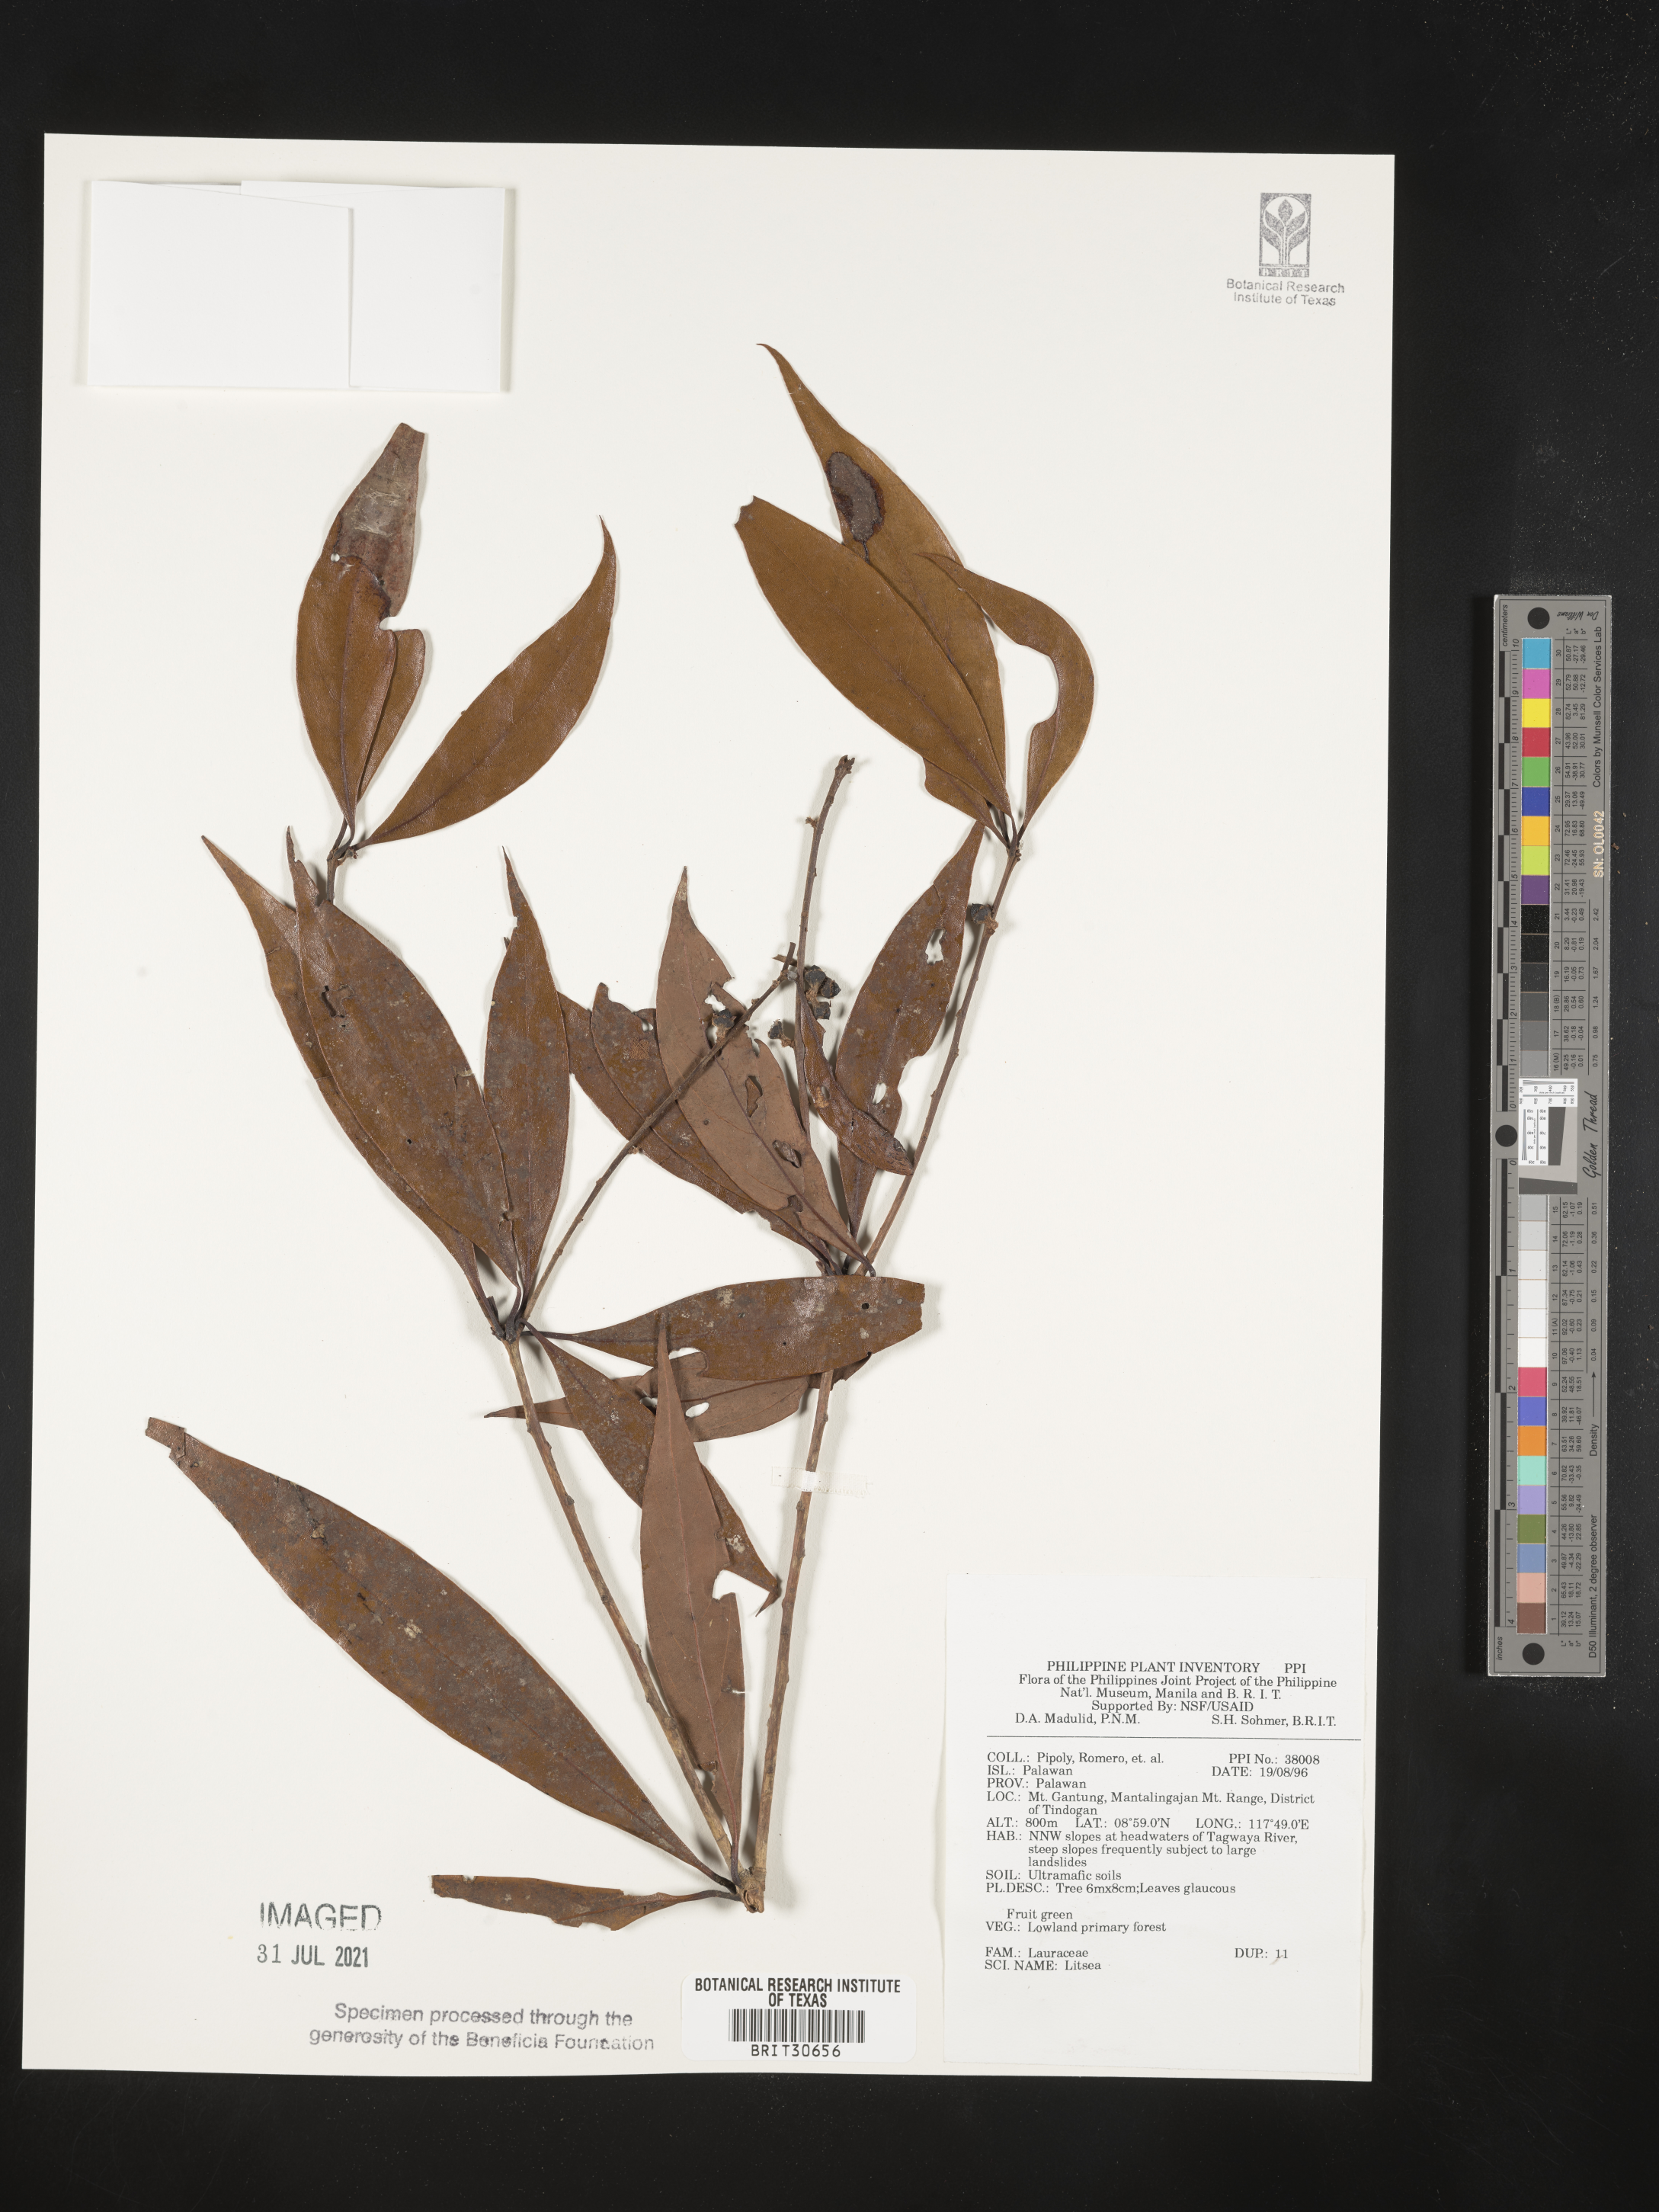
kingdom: Plantae
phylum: Tracheophyta
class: Magnoliopsida
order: Laurales
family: Lauraceae
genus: Litsea
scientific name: Litsea
